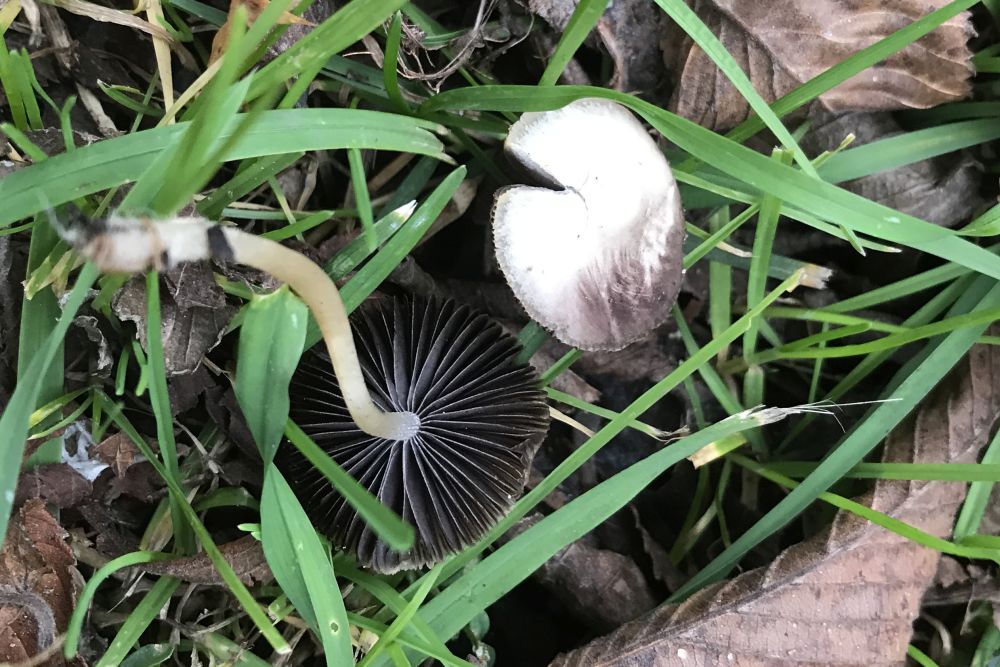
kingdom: Fungi
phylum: Basidiomycota
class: Agaricomycetes
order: Agaricales
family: Psathyrellaceae
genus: Candolleomyces
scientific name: Candolleomyces candolleanus
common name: Candolles mørkhat
